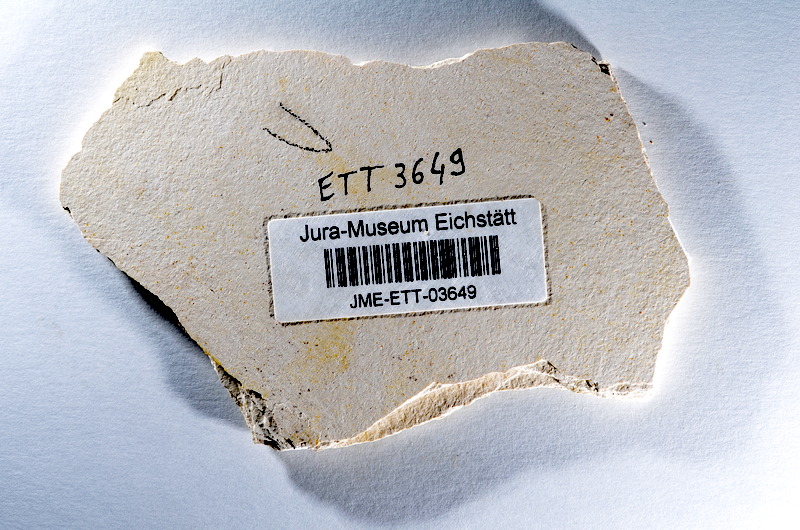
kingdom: Animalia
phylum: Chordata
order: Salmoniformes
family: Orthogonikleithridae
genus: Orthogonikleithrus
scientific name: Orthogonikleithrus hoelli
